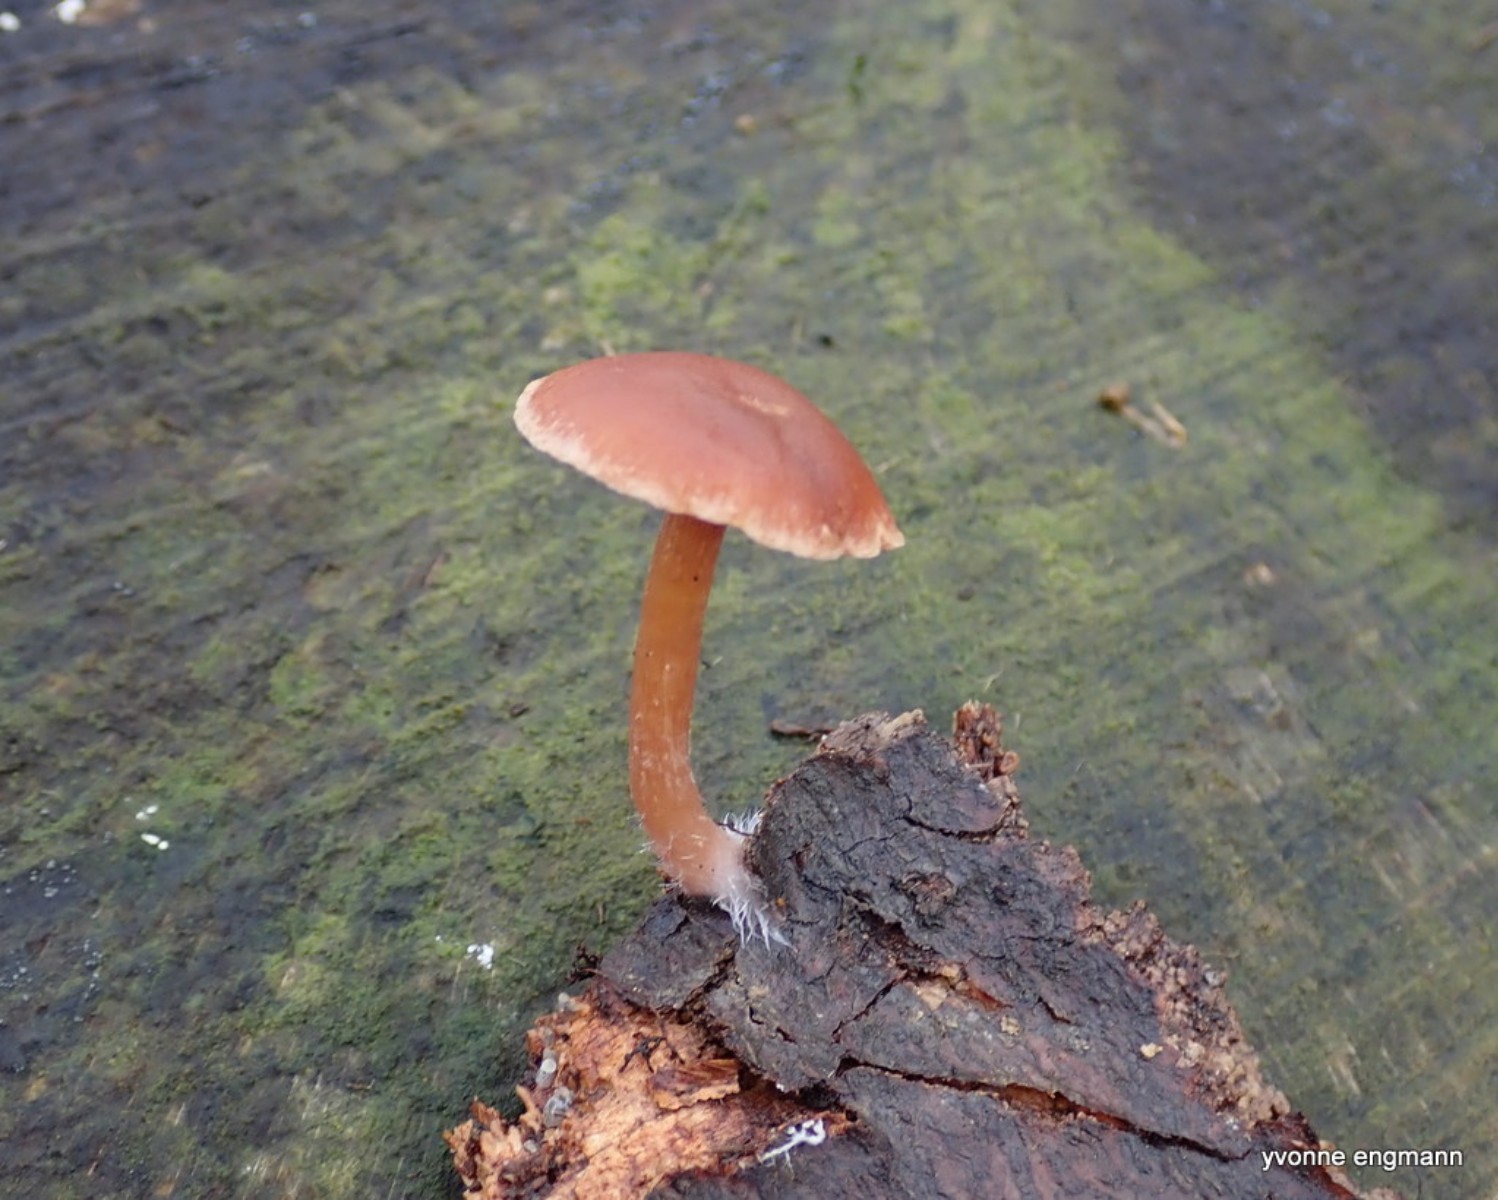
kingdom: Fungi
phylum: Basidiomycota
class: Agaricomycetes
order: Agaricales
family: Tubariaceae
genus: Tubaria
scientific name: Tubaria furfuracea
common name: kliddet fnughat
